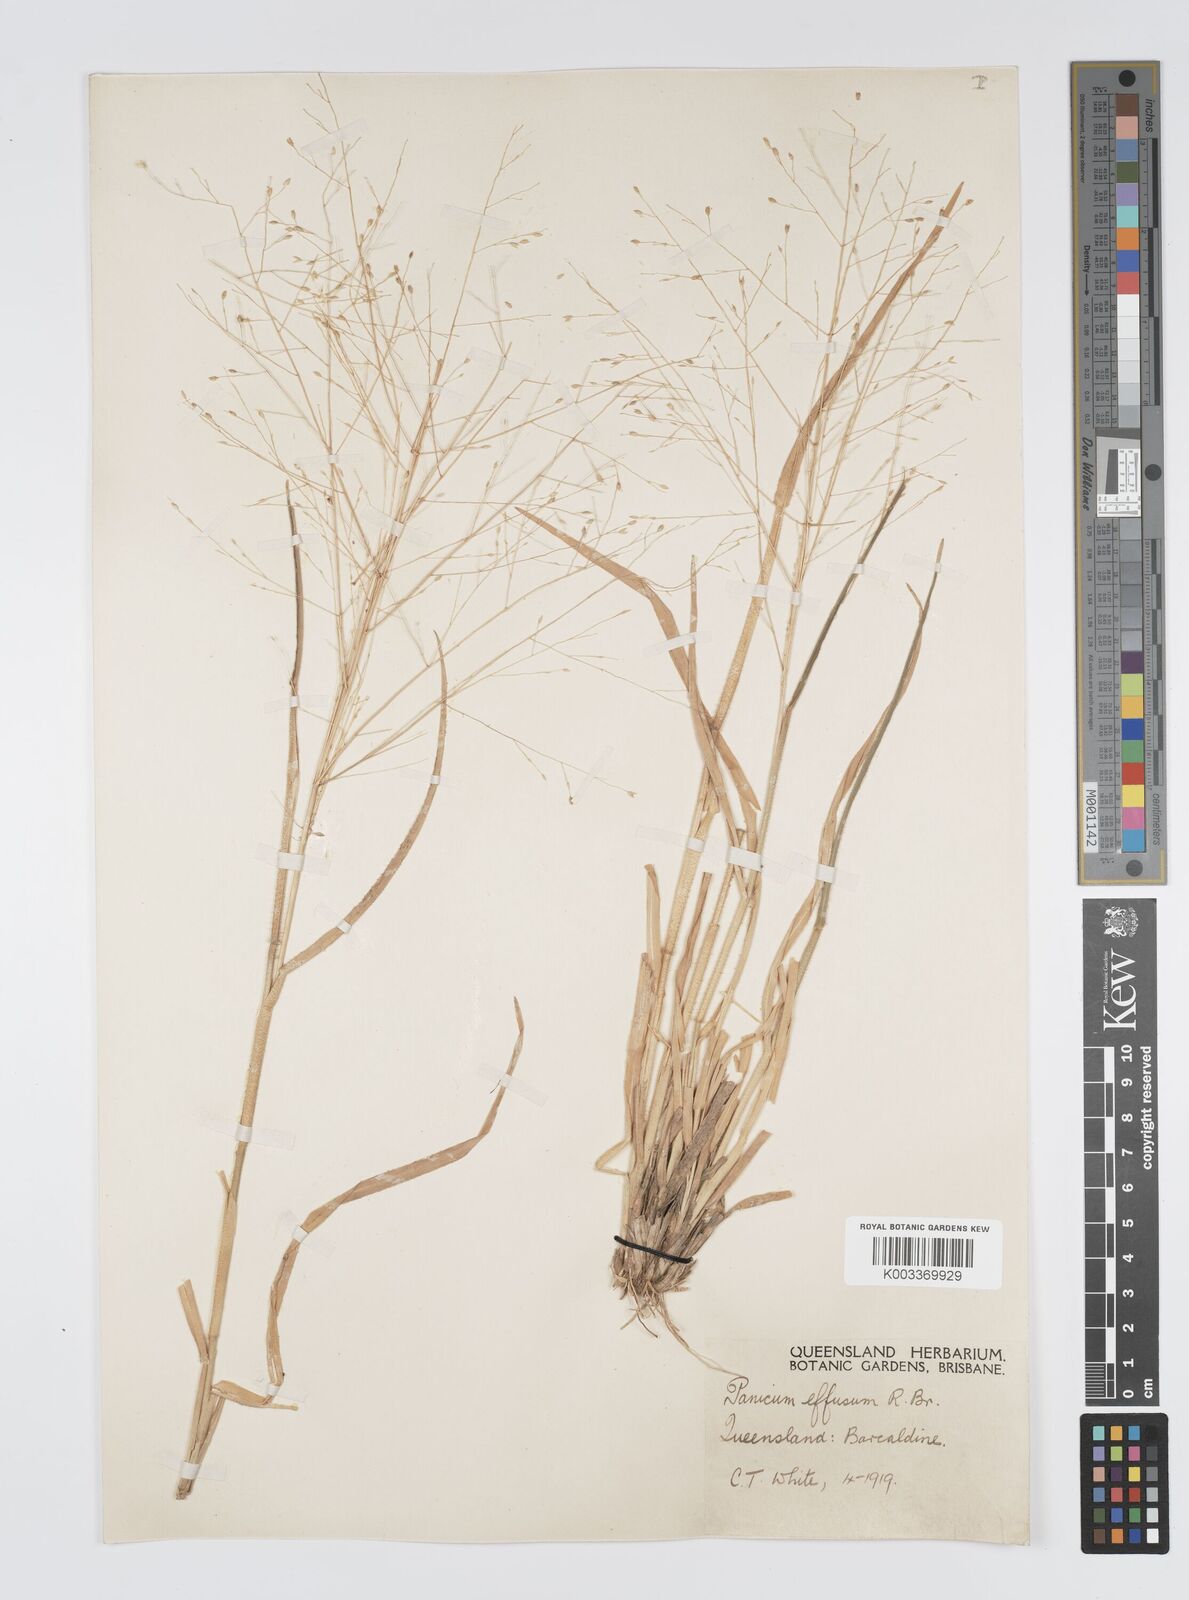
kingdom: Plantae
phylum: Tracheophyta
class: Liliopsida
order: Poales
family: Poaceae
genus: Panicum
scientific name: Panicum effusum
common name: Hairy panic grass
